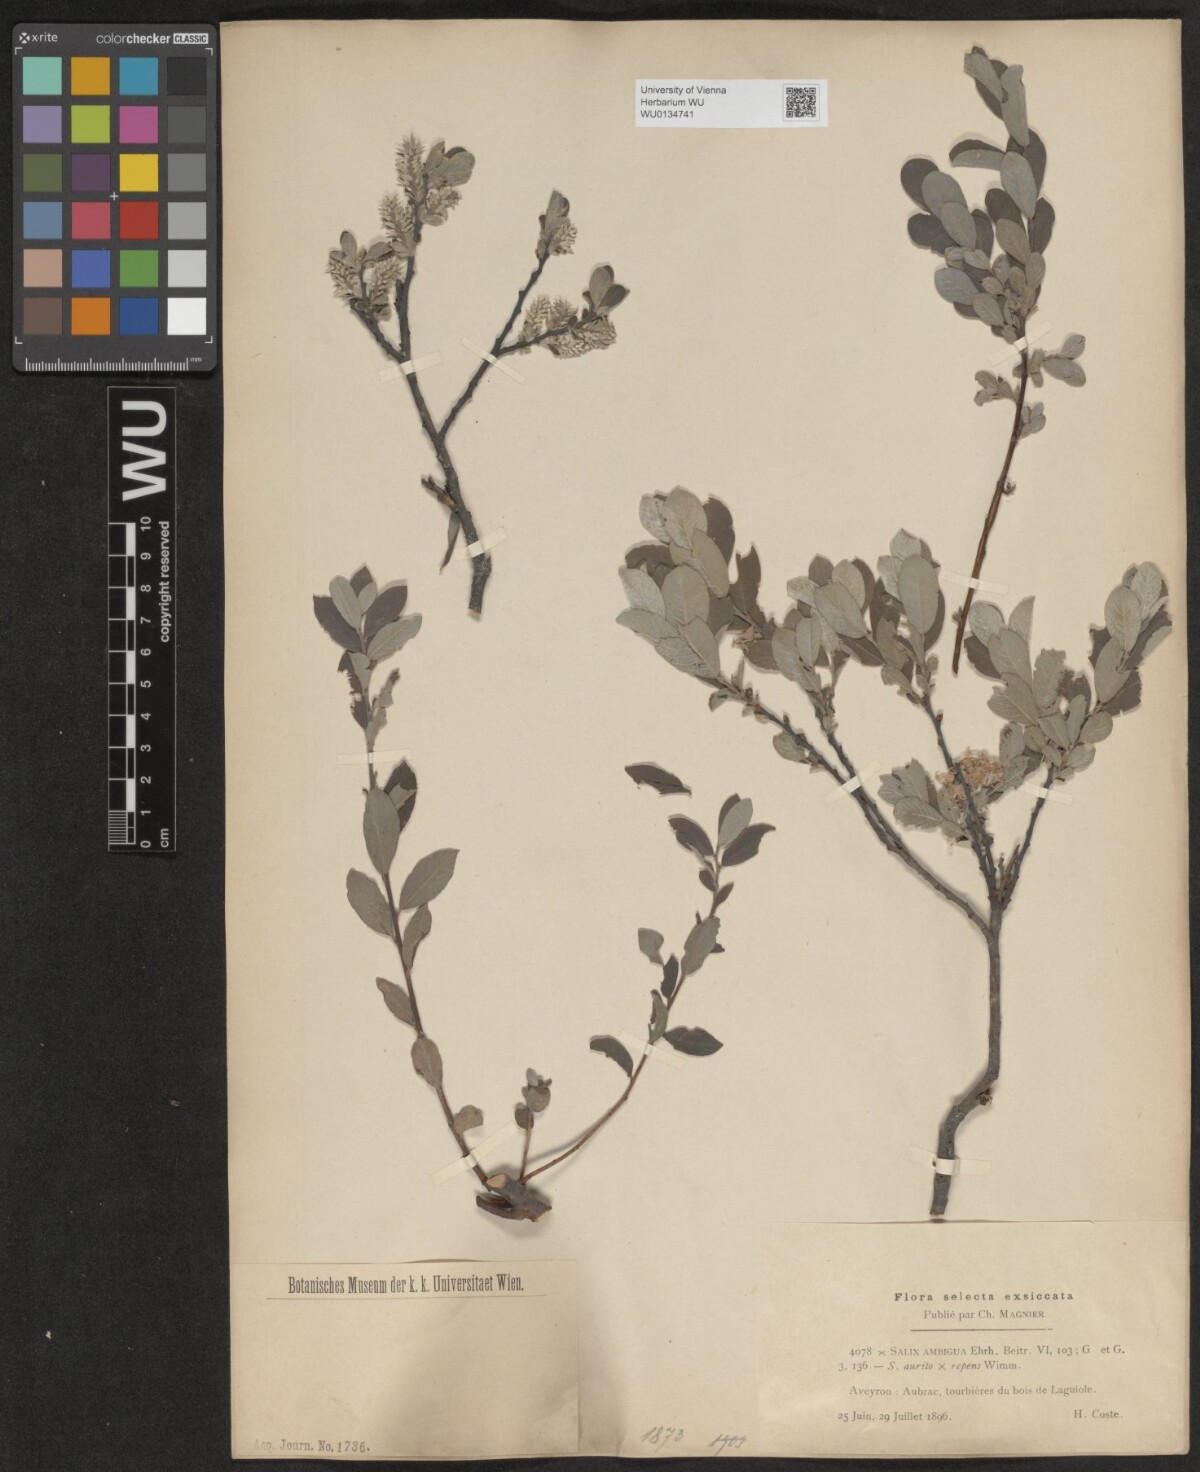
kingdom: Plantae
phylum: Tracheophyta
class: Magnoliopsida
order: Malpighiales
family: Salicaceae
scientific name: Salicaceae
